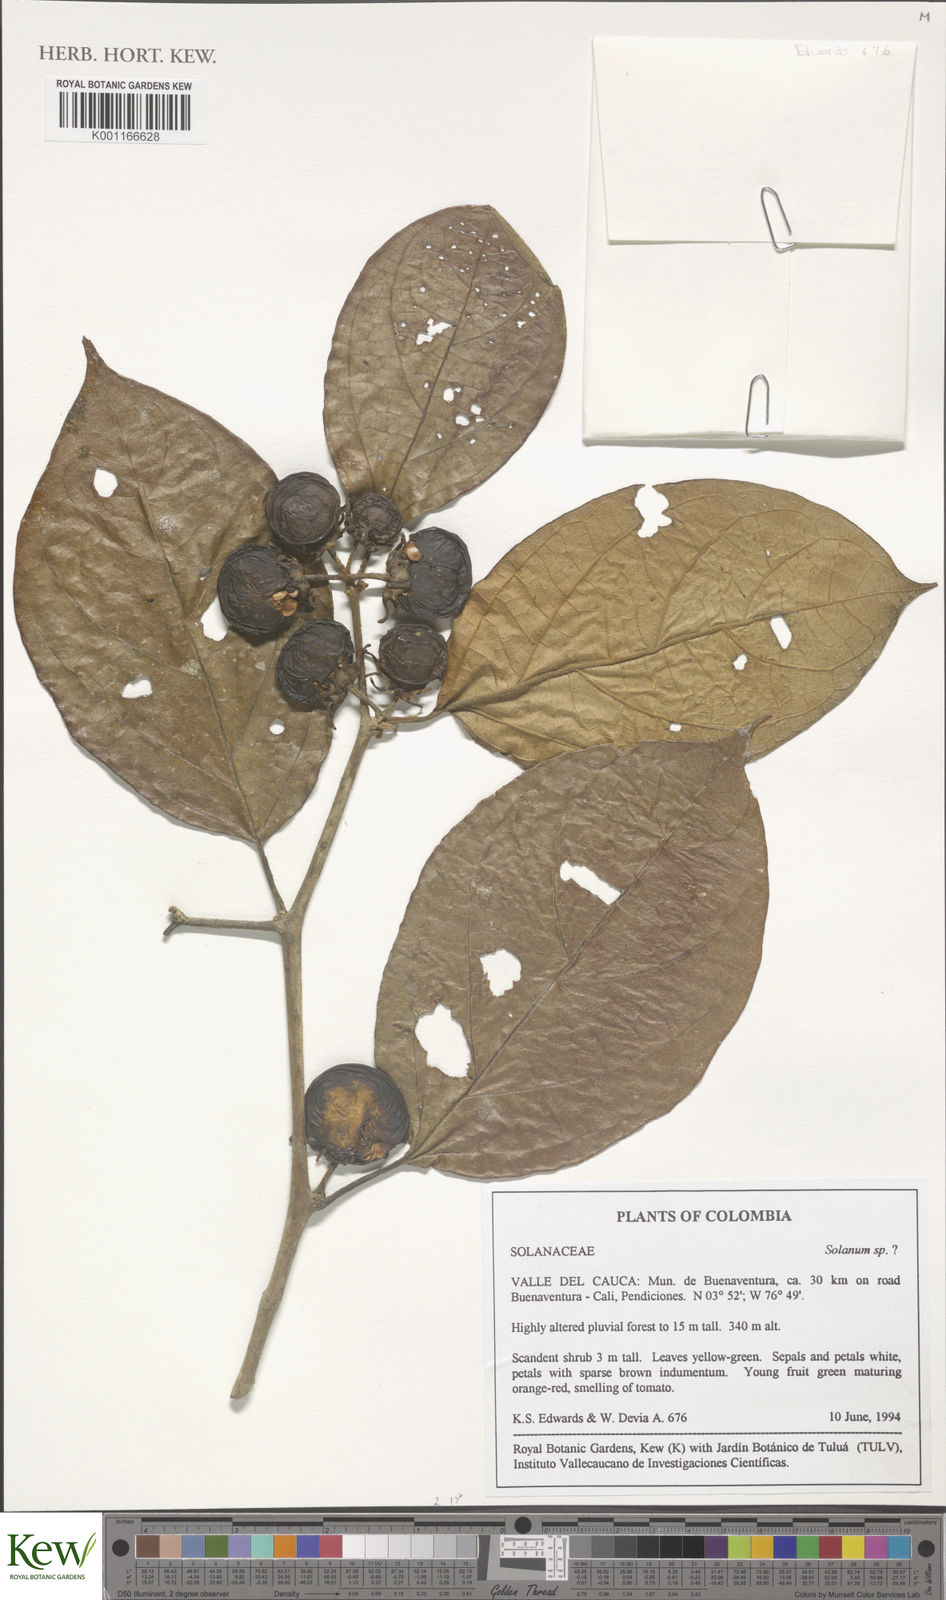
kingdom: Plantae
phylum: Tracheophyta
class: Magnoliopsida
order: Solanales
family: Solanaceae
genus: Solanum
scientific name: Solanum
